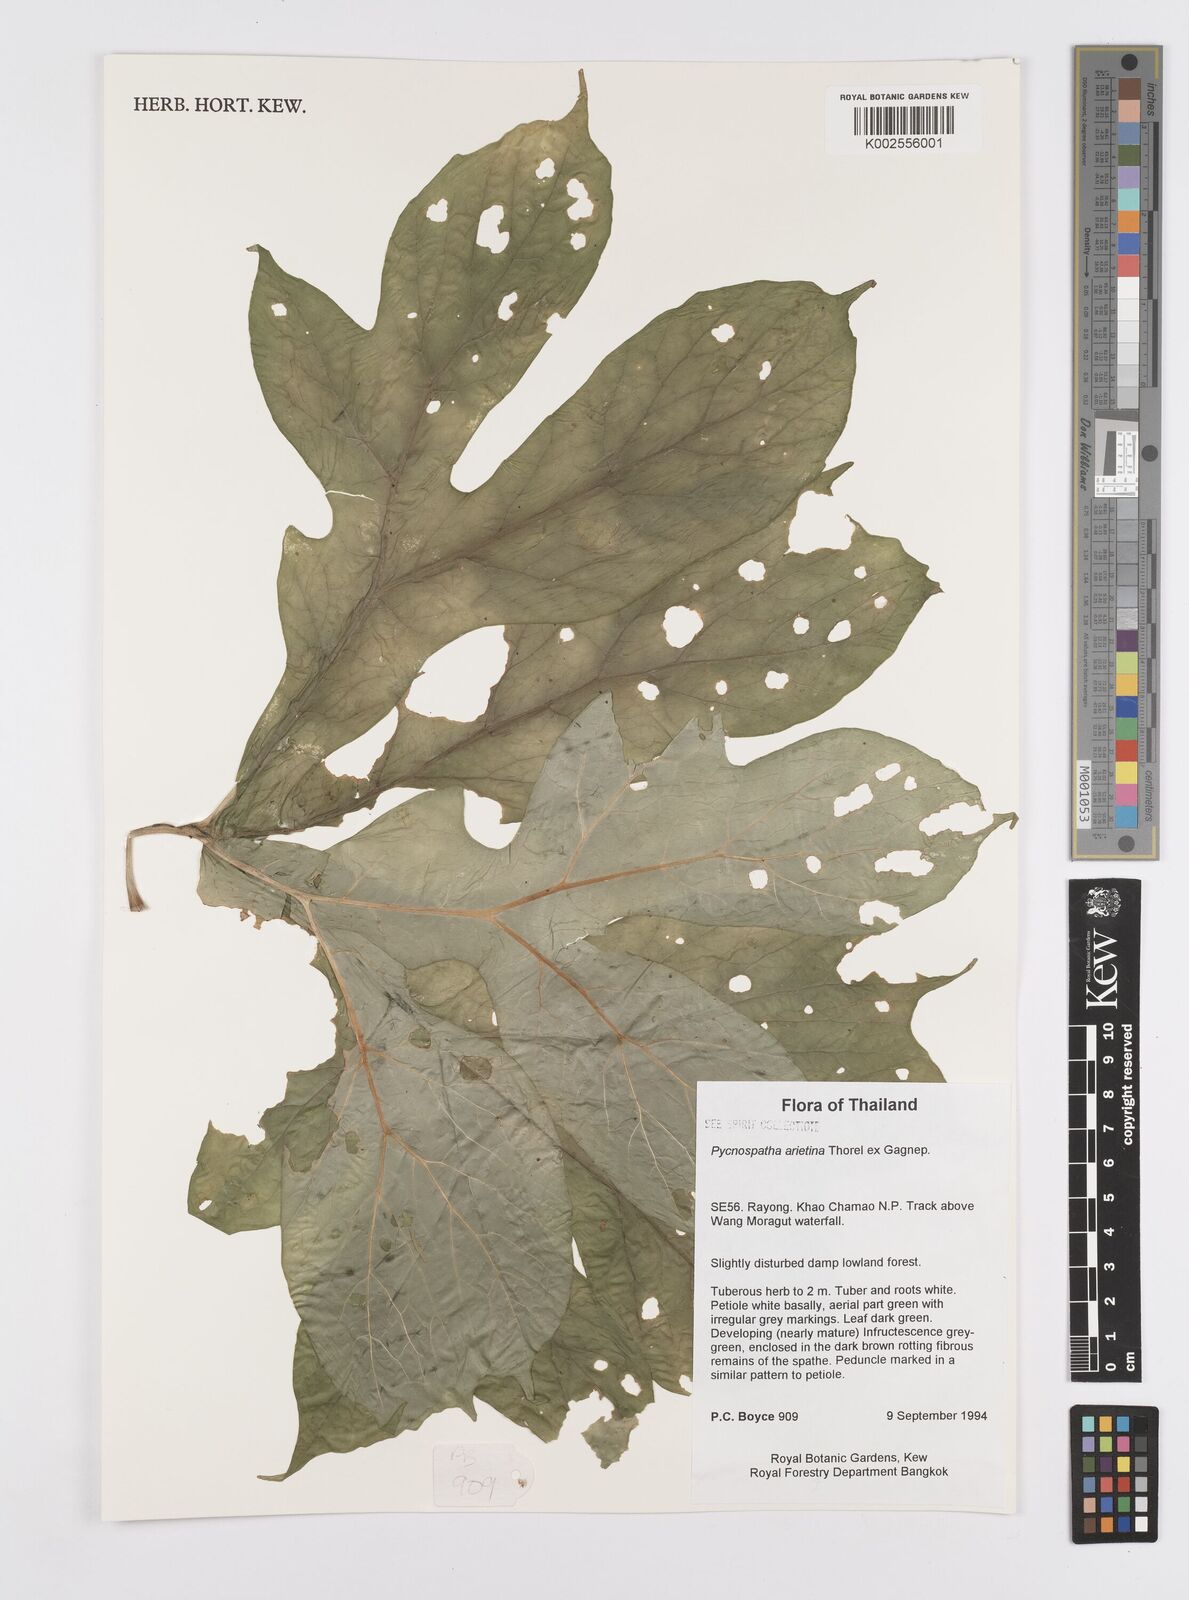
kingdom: Plantae
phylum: Tracheophyta
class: Liliopsida
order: Alismatales
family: Araceae
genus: Pycnospatha
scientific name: Pycnospatha arietina
